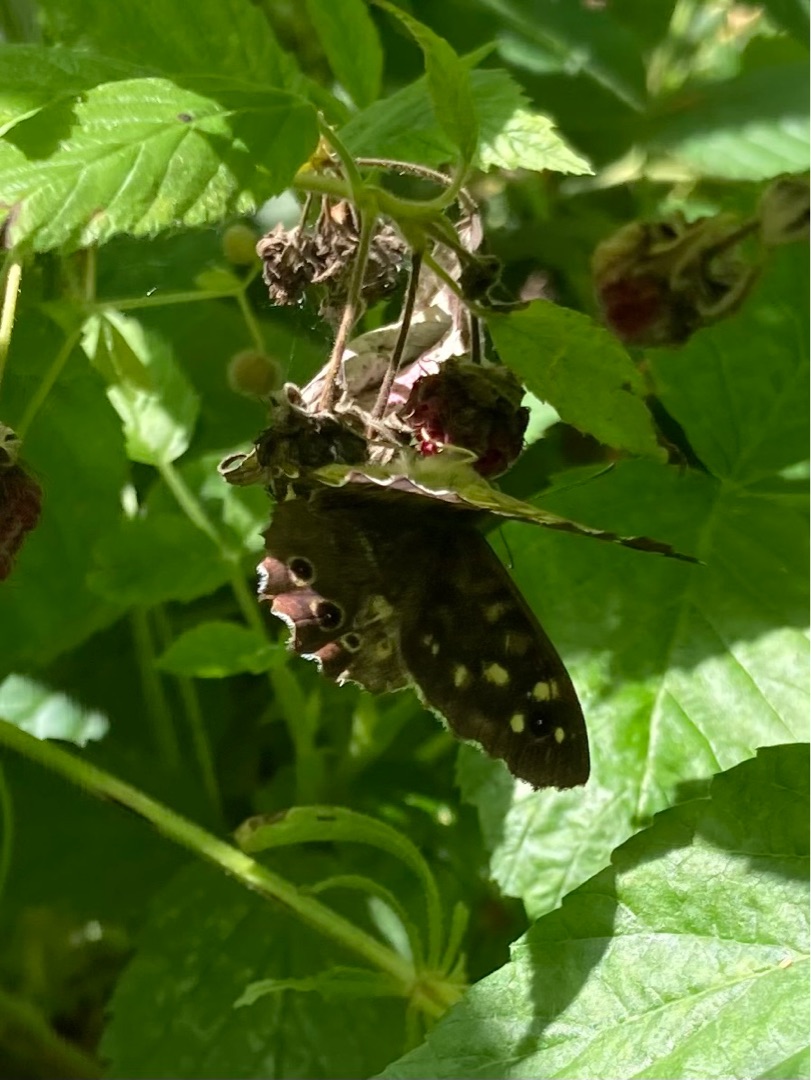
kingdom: Animalia
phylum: Arthropoda
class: Insecta
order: Lepidoptera
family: Nymphalidae
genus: Pararge
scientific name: Pararge aegeria
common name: Skovrandøje
